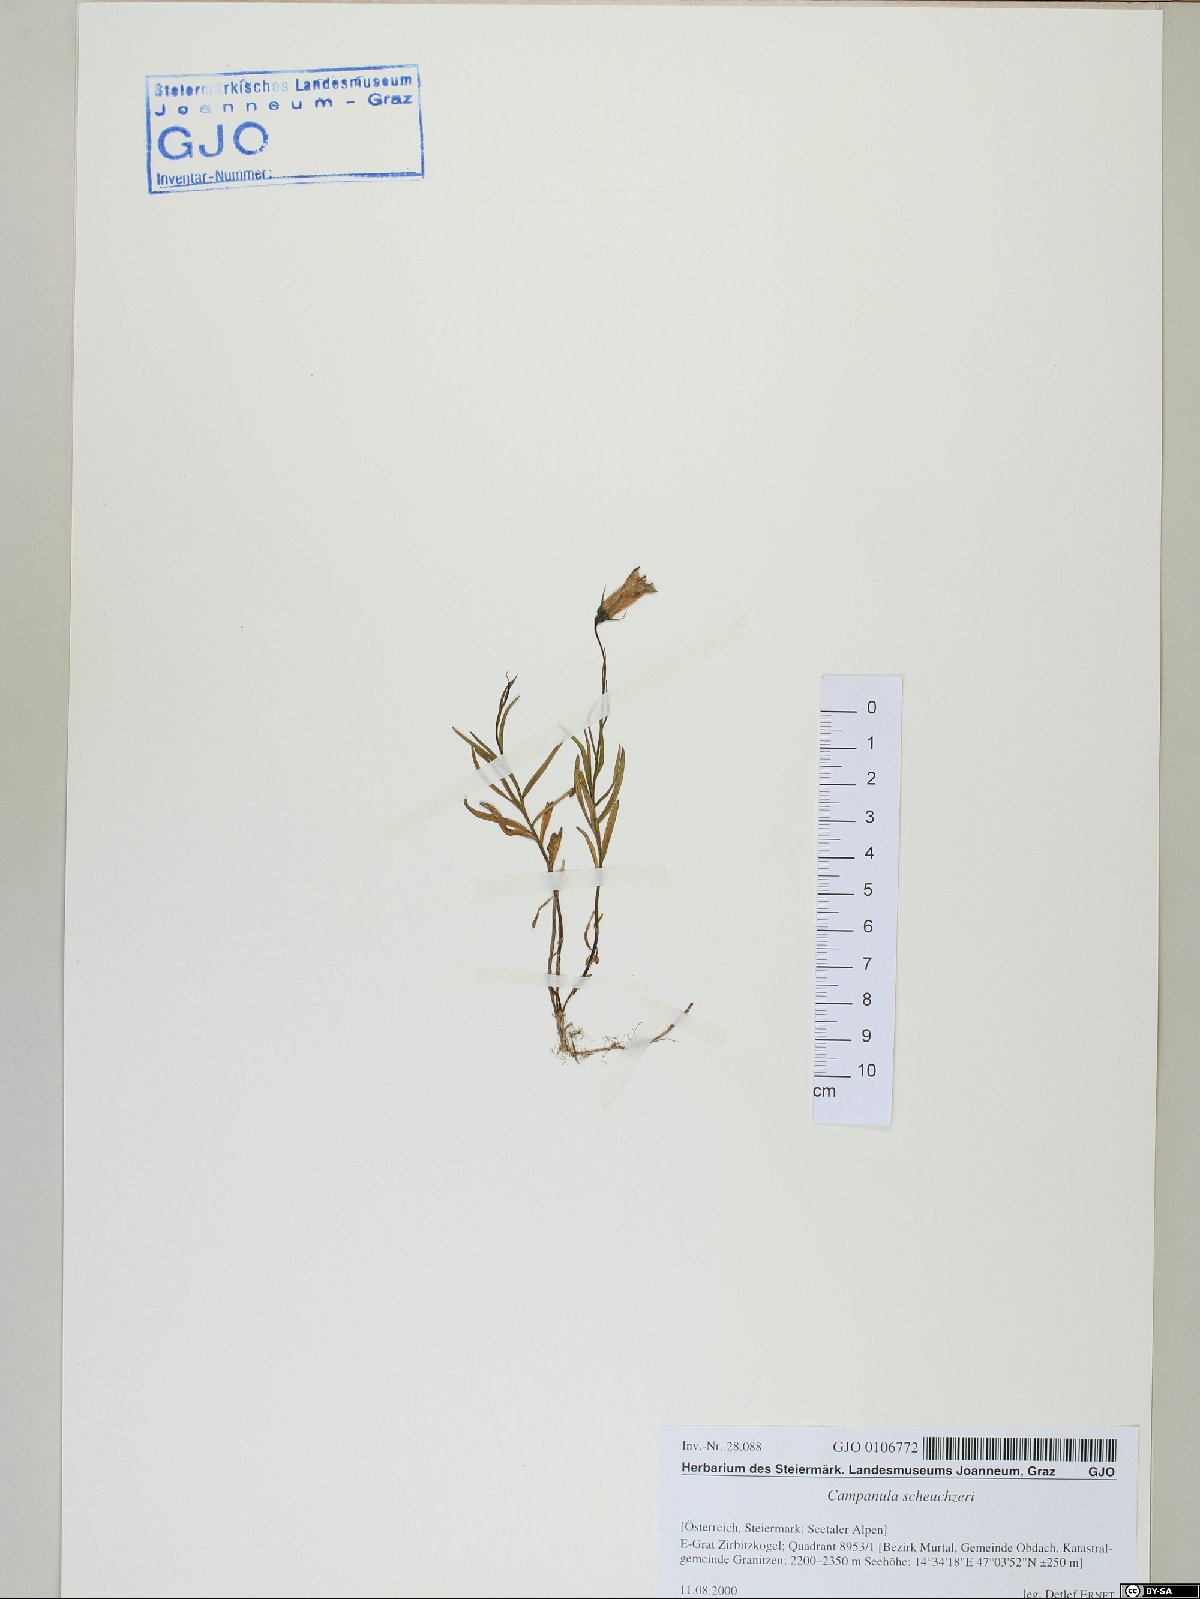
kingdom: Plantae
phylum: Tracheophyta
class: Magnoliopsida
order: Asterales
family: Campanulaceae
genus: Campanula
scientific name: Campanula scheuchzeri
